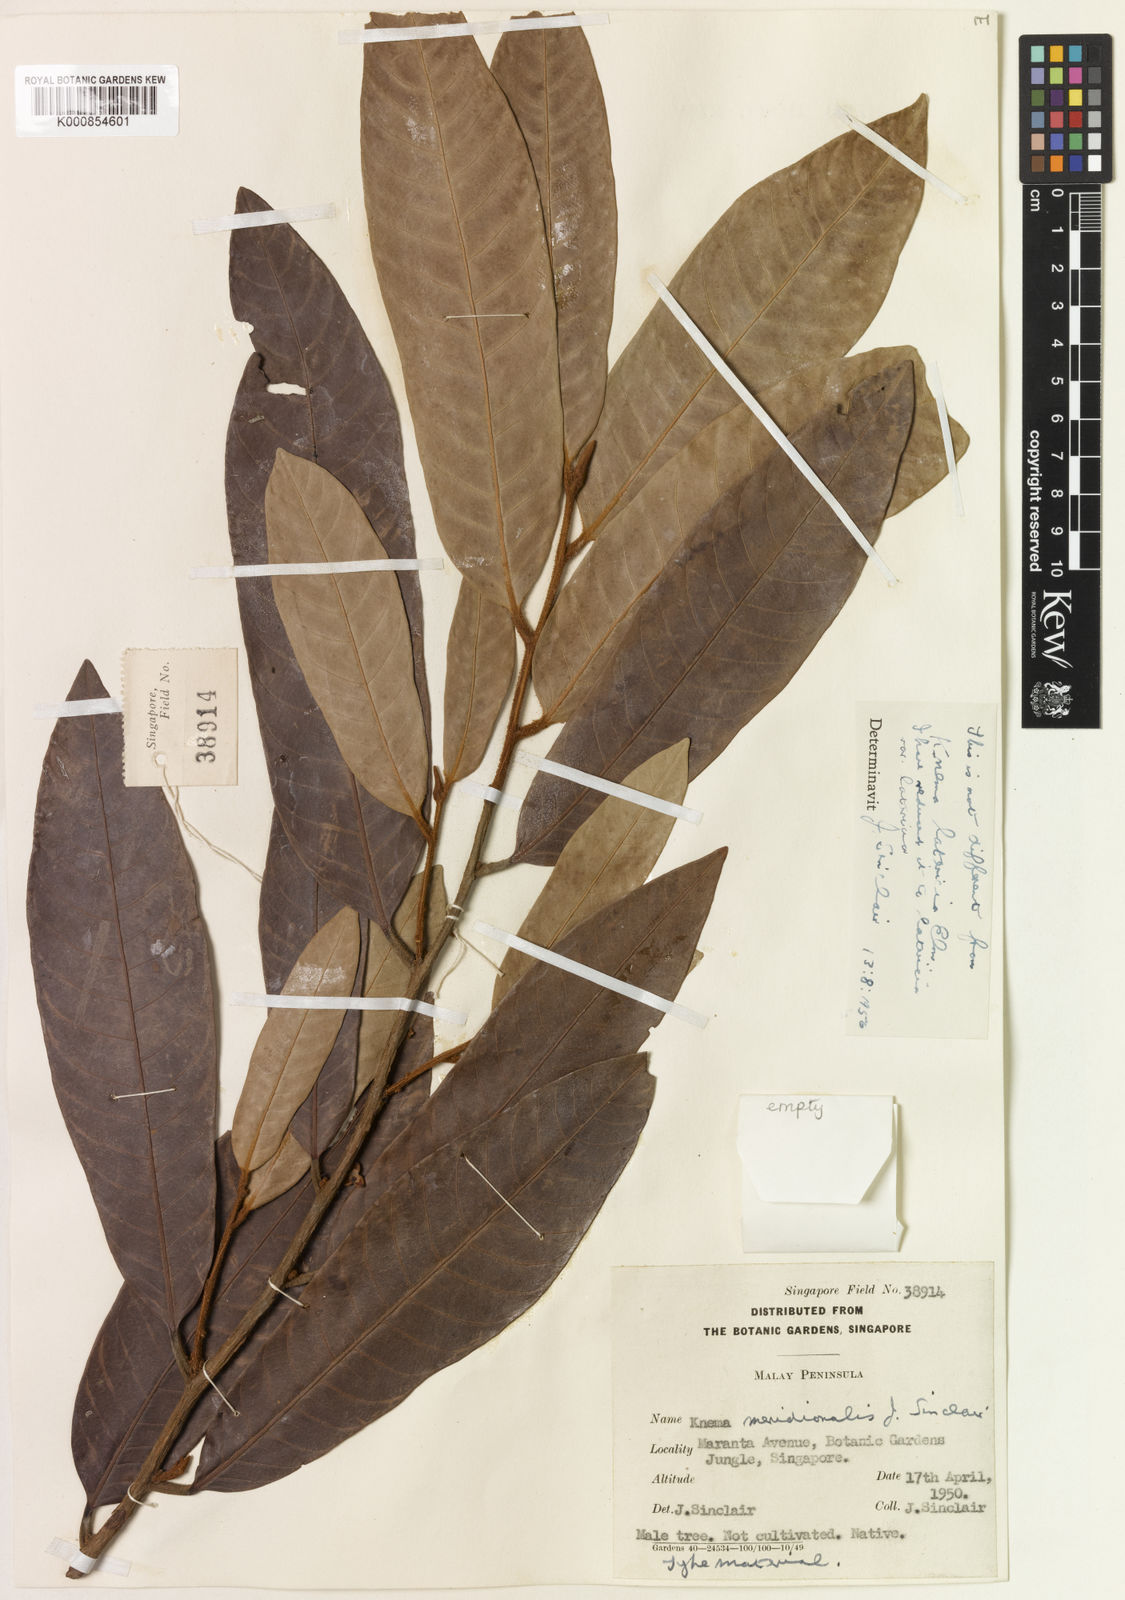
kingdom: Plantae
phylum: Tracheophyta
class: Magnoliopsida
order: Magnoliales
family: Myristicaceae
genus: Knema
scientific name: Knema latericia
